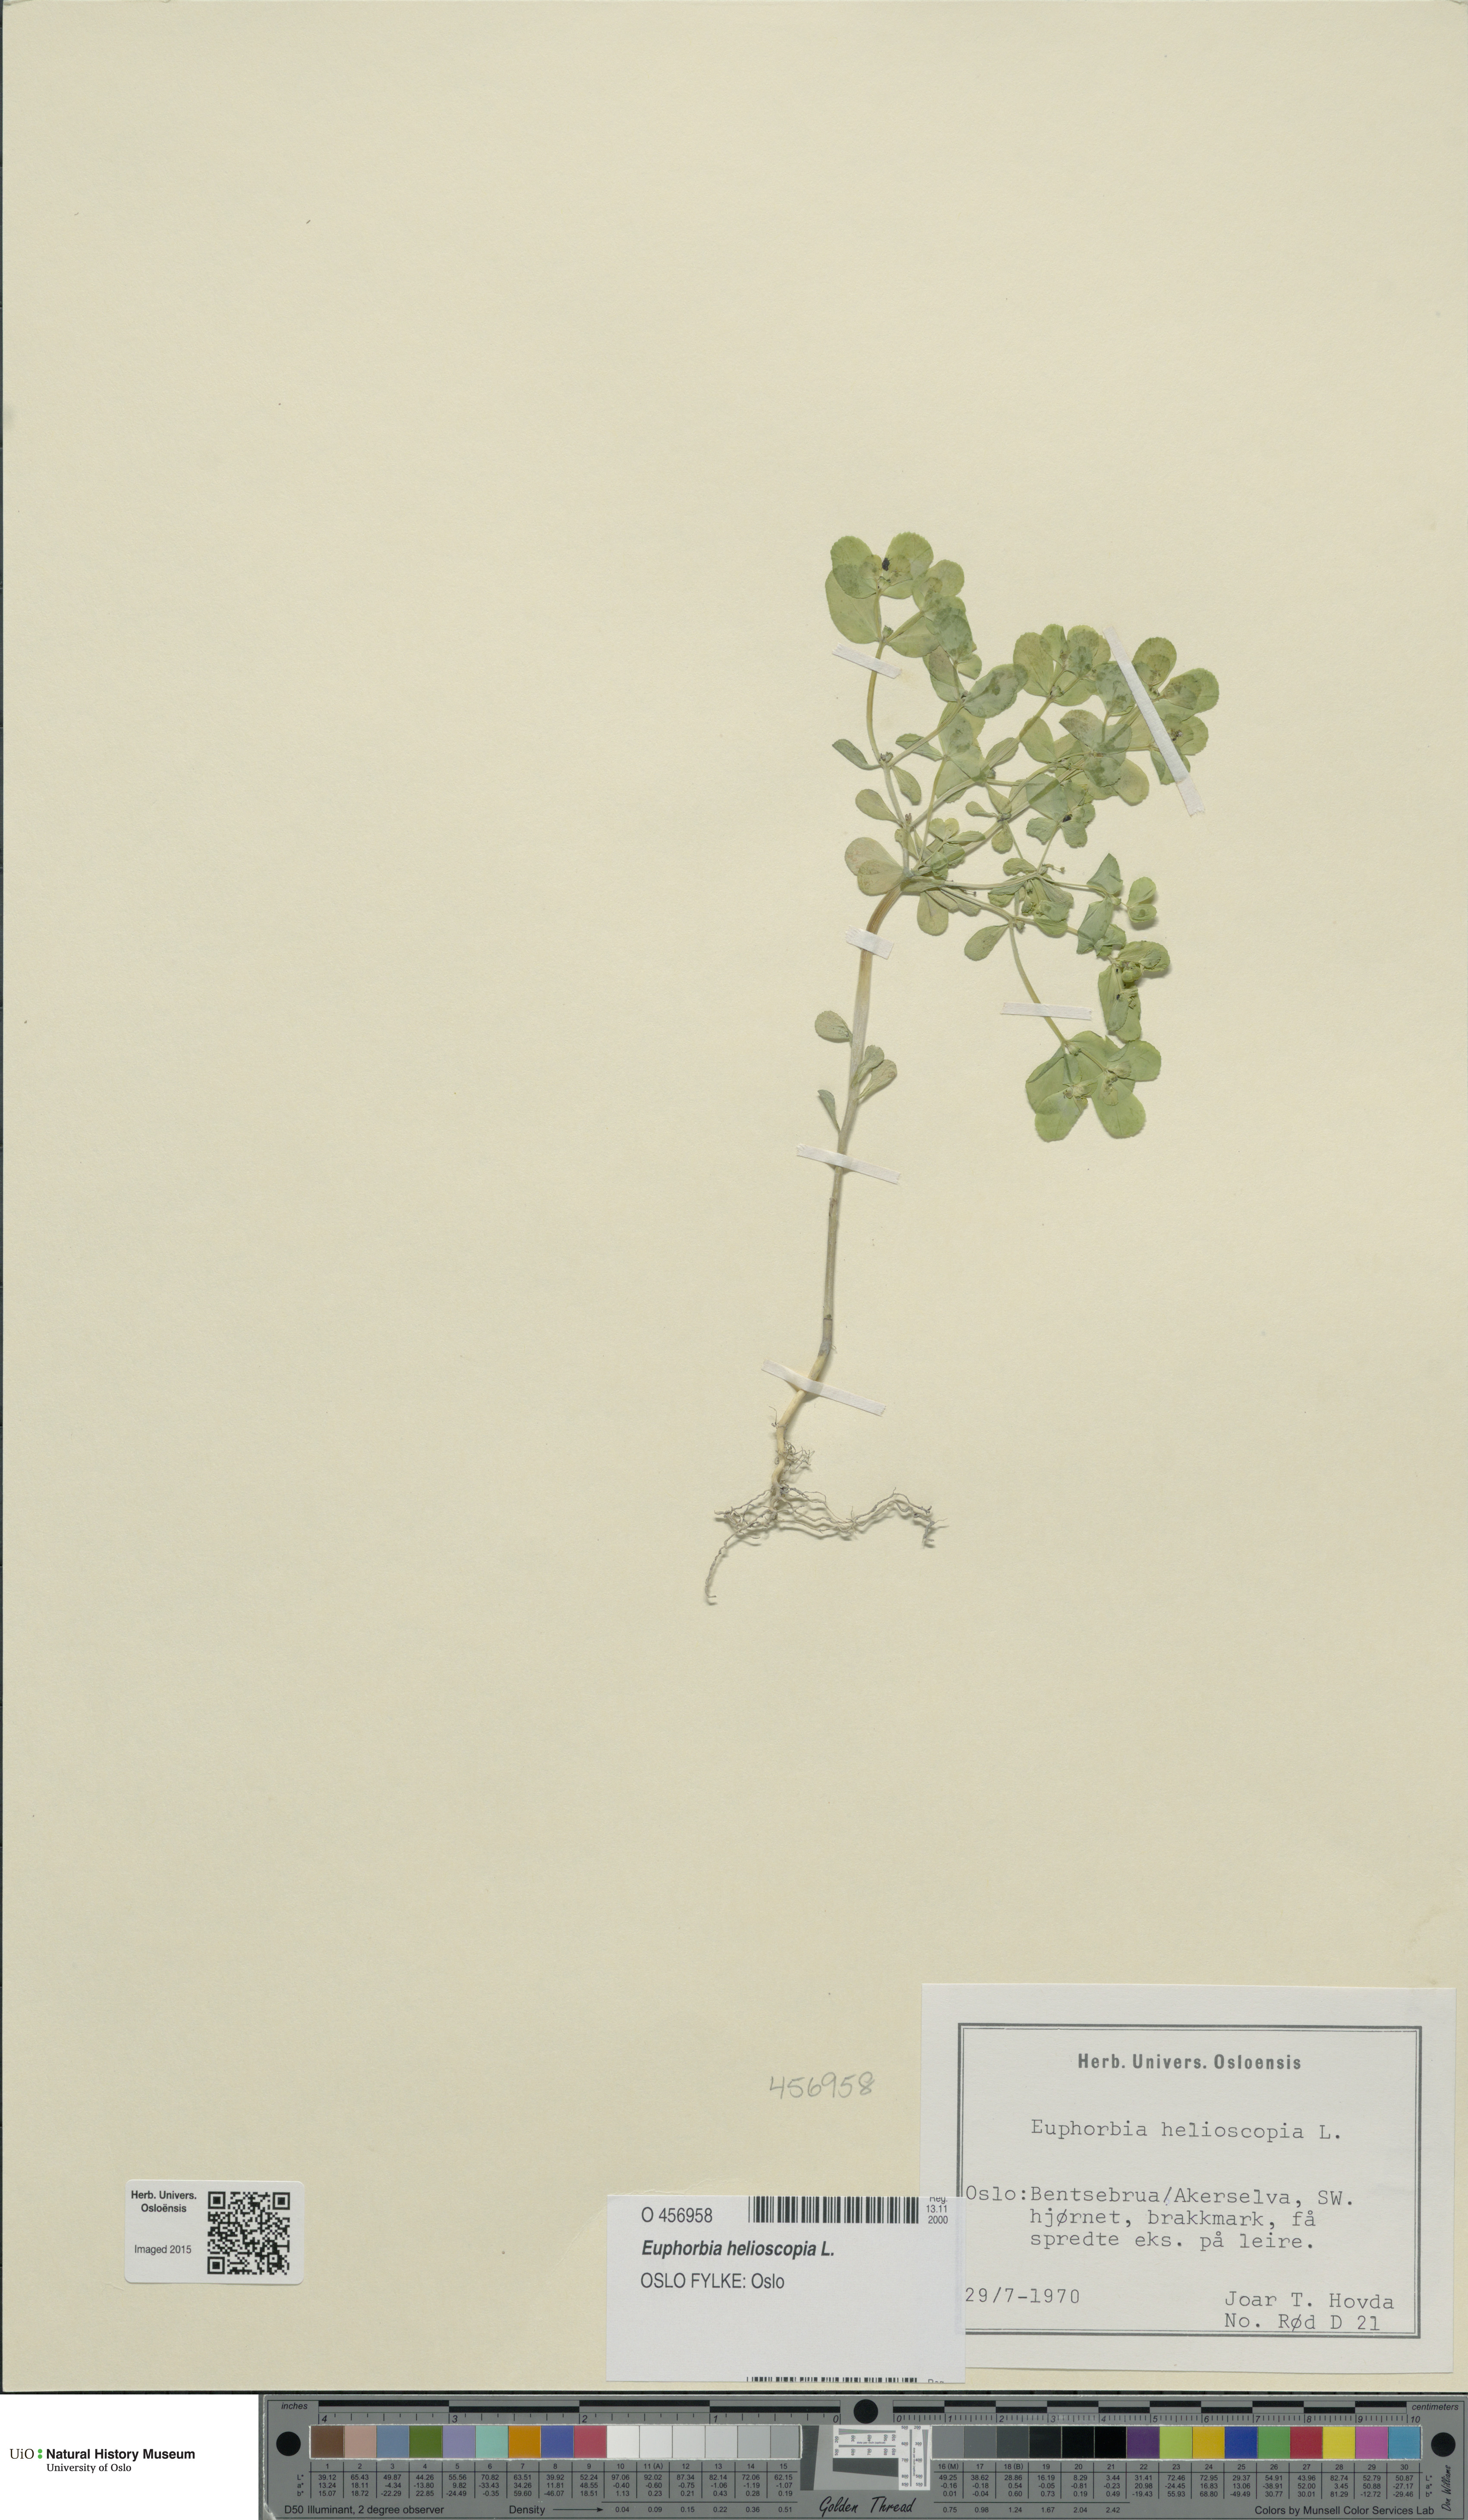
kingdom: Plantae
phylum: Tracheophyta
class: Magnoliopsida
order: Malpighiales
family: Euphorbiaceae
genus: Euphorbia
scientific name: Euphorbia helioscopia
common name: Sun spurge
